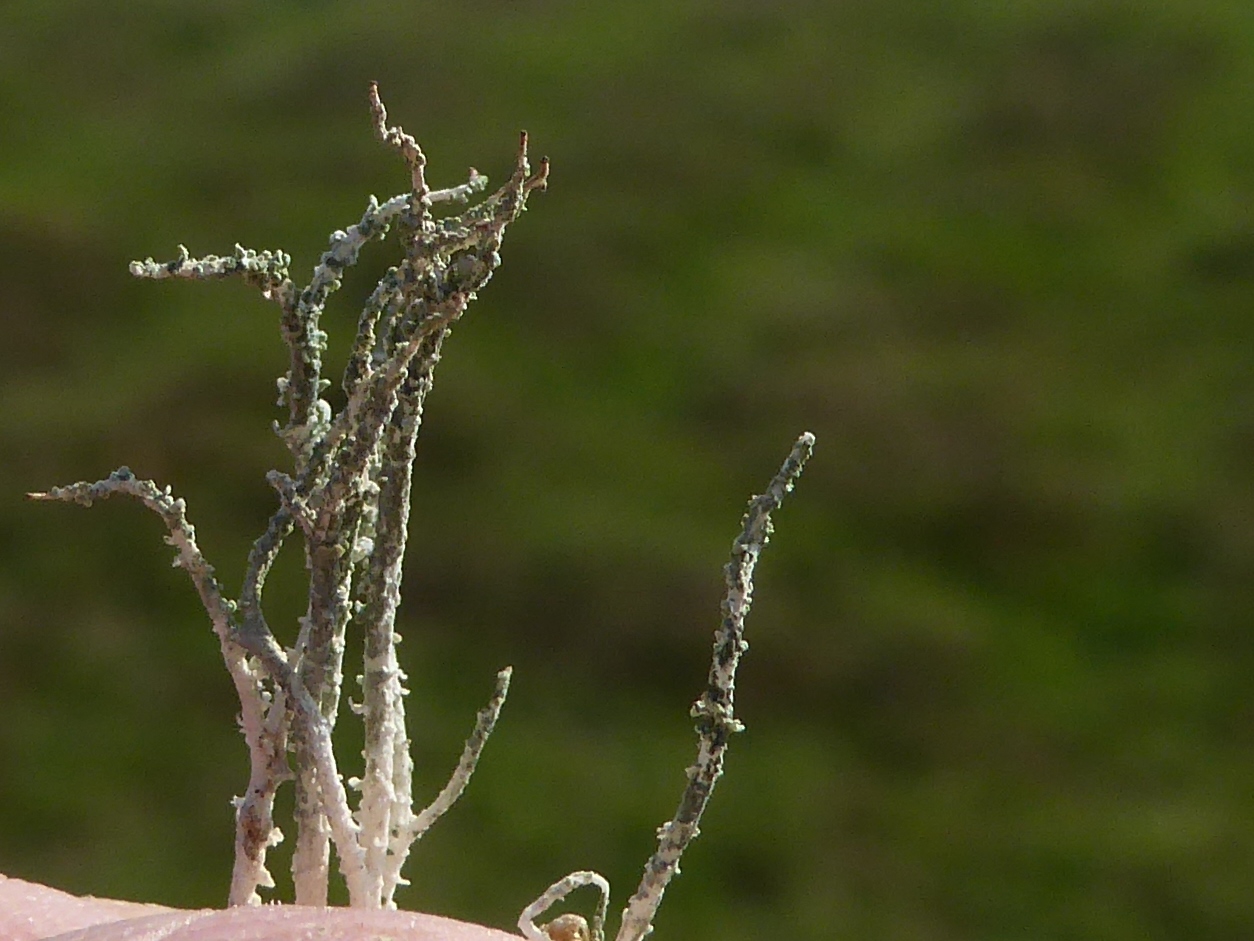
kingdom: Fungi
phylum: Ascomycota
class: Lecanoromycetes
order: Lecanorales
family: Cladoniaceae
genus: Cladonia
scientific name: Cladonia scabriuscula
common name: ru bægerlav
